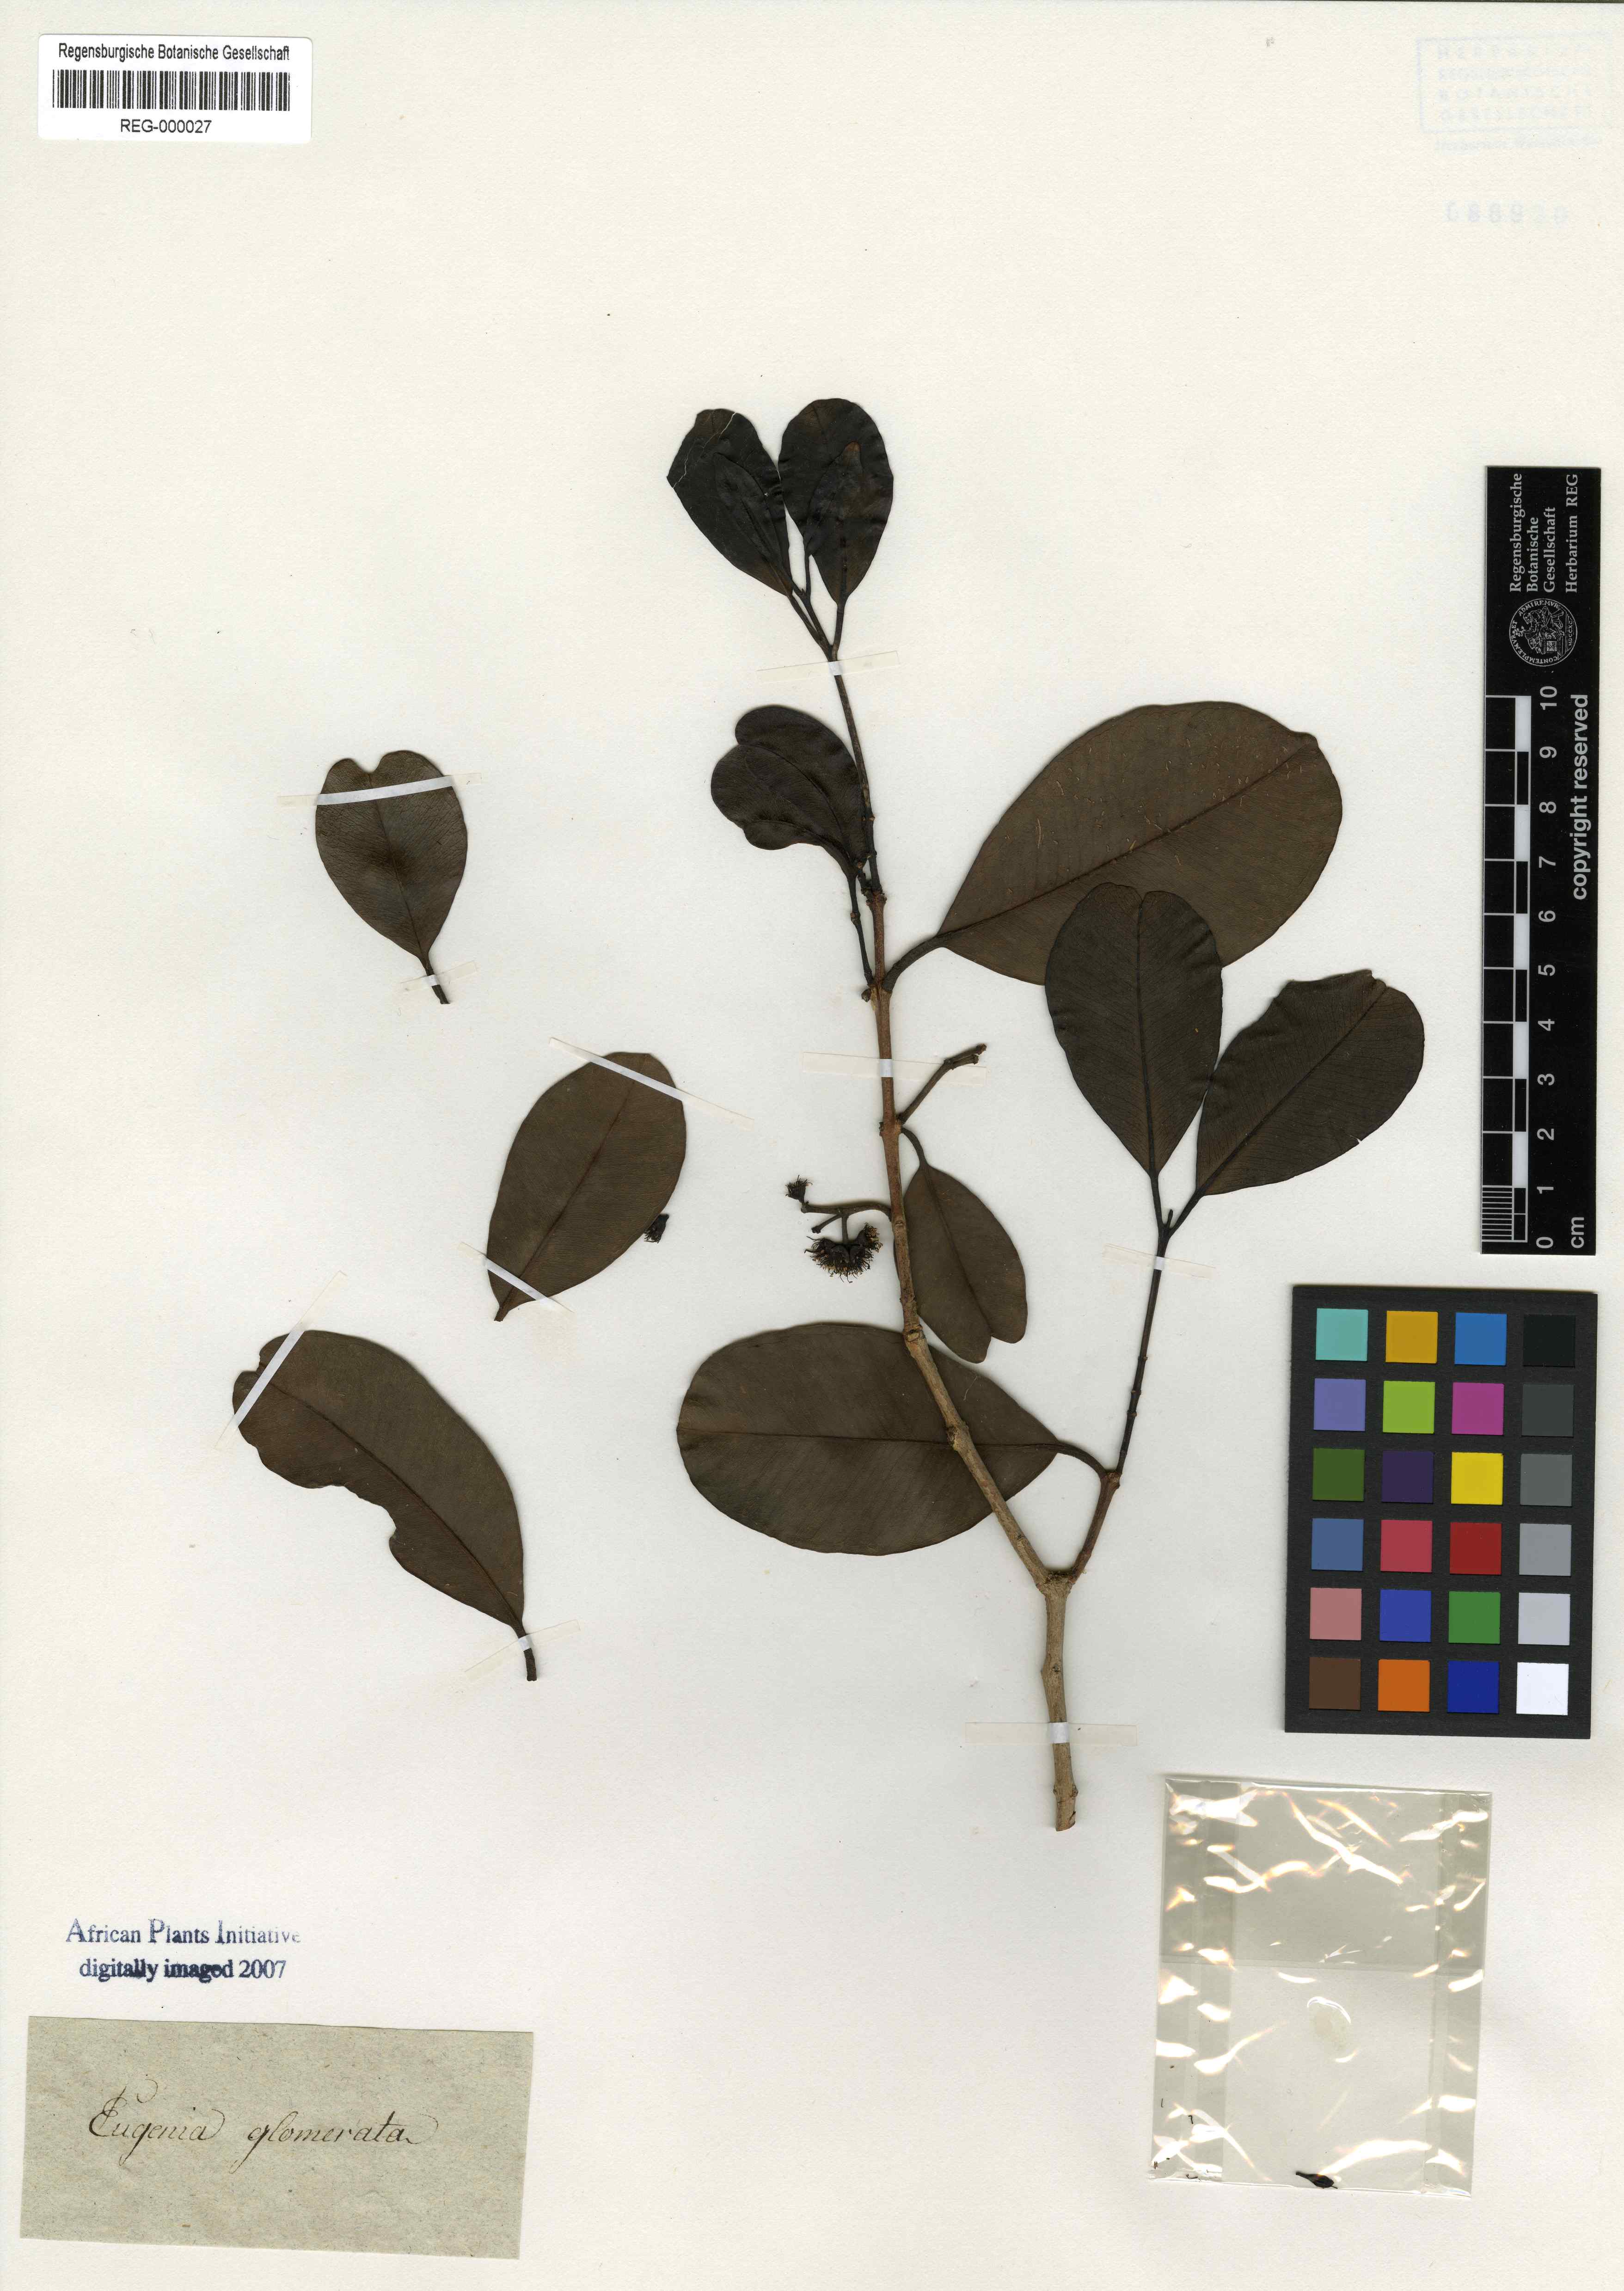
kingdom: Plantae
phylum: Tracheophyta
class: Magnoliopsida
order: Myrtales
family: Myrtaceae
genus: Syzygium
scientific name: Syzygium glomeratum
